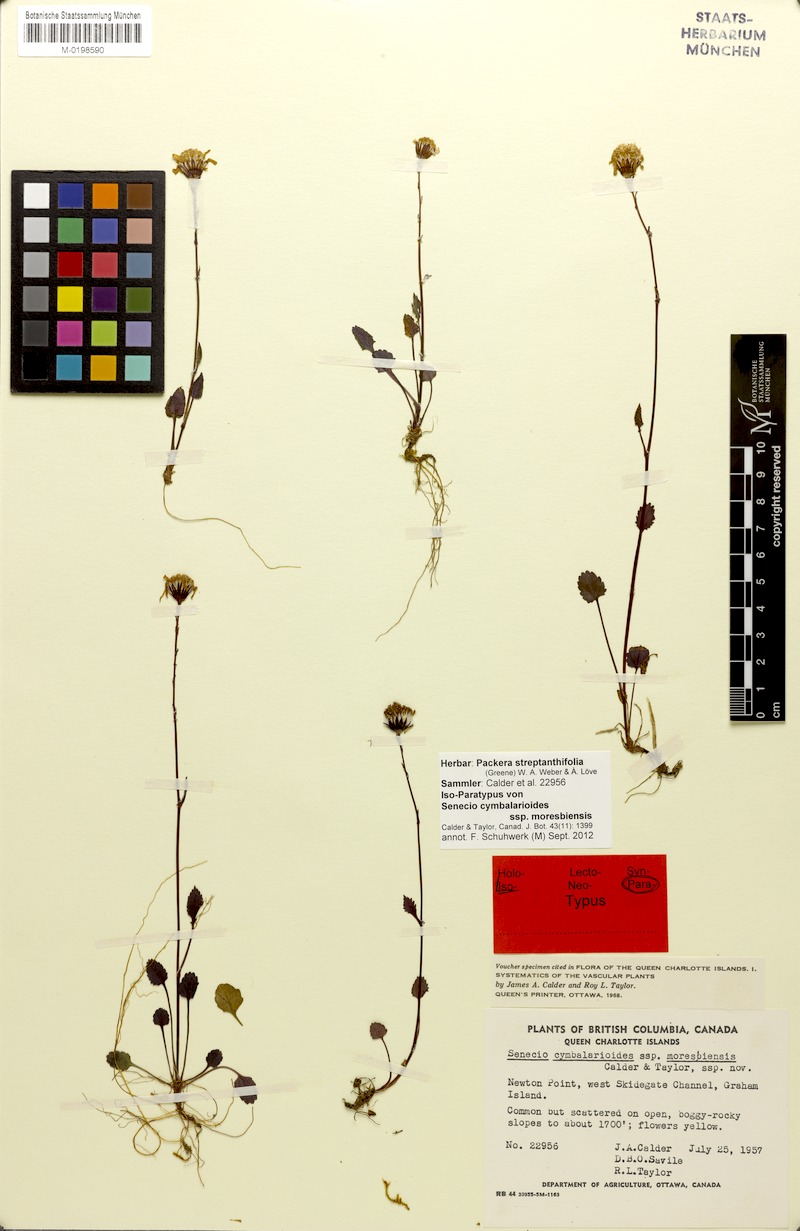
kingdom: Plantae
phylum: Tracheophyta
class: Magnoliopsida
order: Asterales
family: Asteraceae
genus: Packera
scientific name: Packera streptanthifolia
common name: Rocky mountain butterweed
